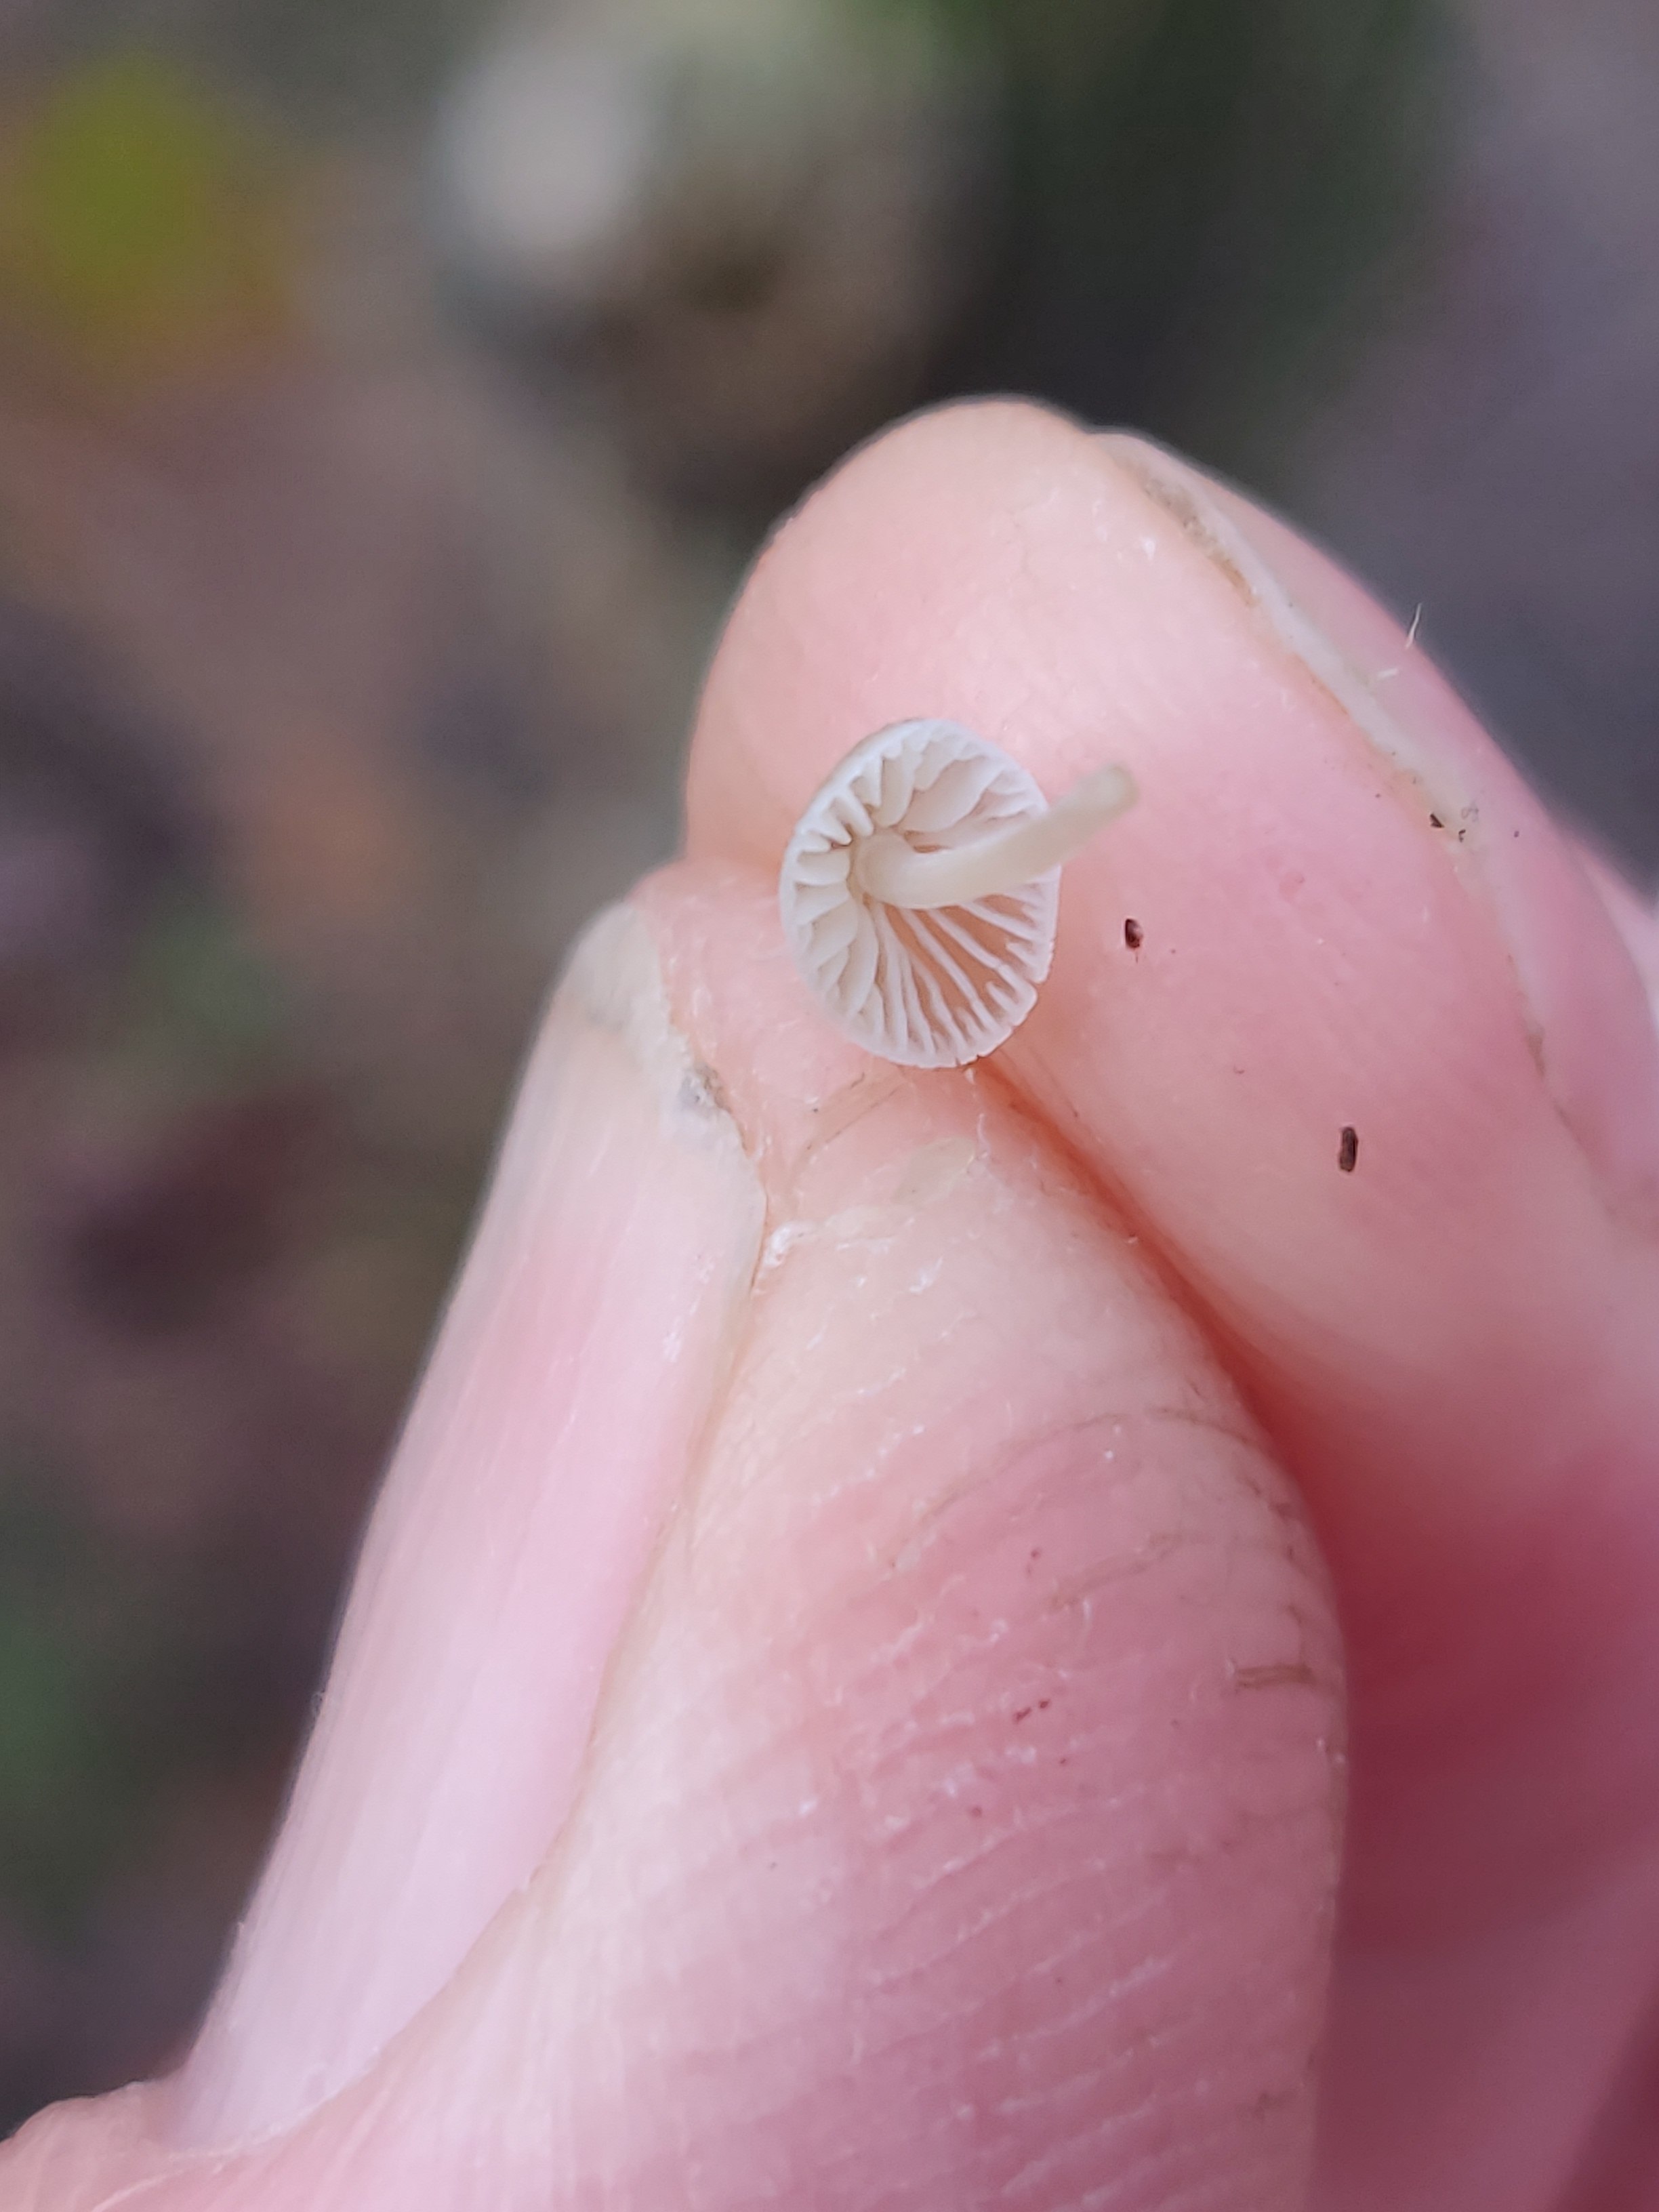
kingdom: Fungi
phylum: Basidiomycota
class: Agaricomycetes
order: Agaricales
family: Porotheleaceae
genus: Phloeomana
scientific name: Phloeomana hiemalis
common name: sen huesvamp
